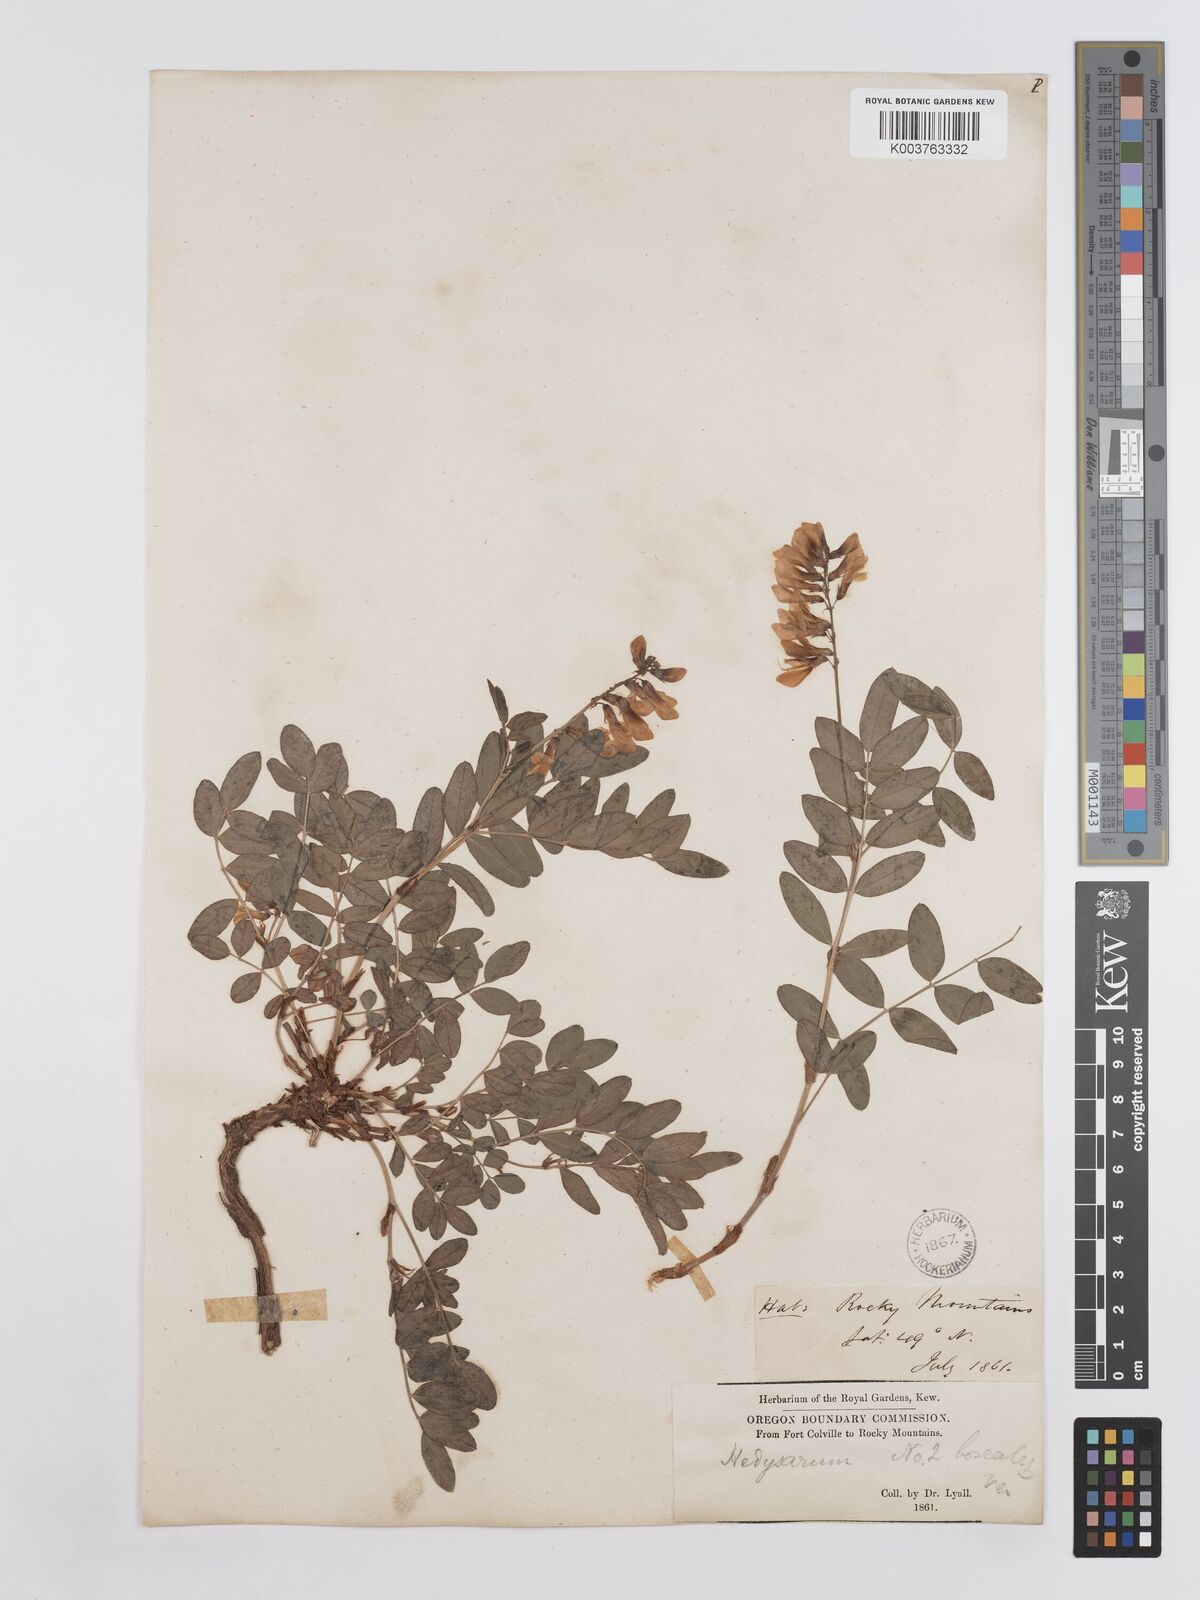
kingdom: Plantae
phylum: Tracheophyta
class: Magnoliopsida
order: Fabales
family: Fabaceae
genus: Hedysarum
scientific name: Hedysarum sulphurescens
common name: Sulphur hedysarum
